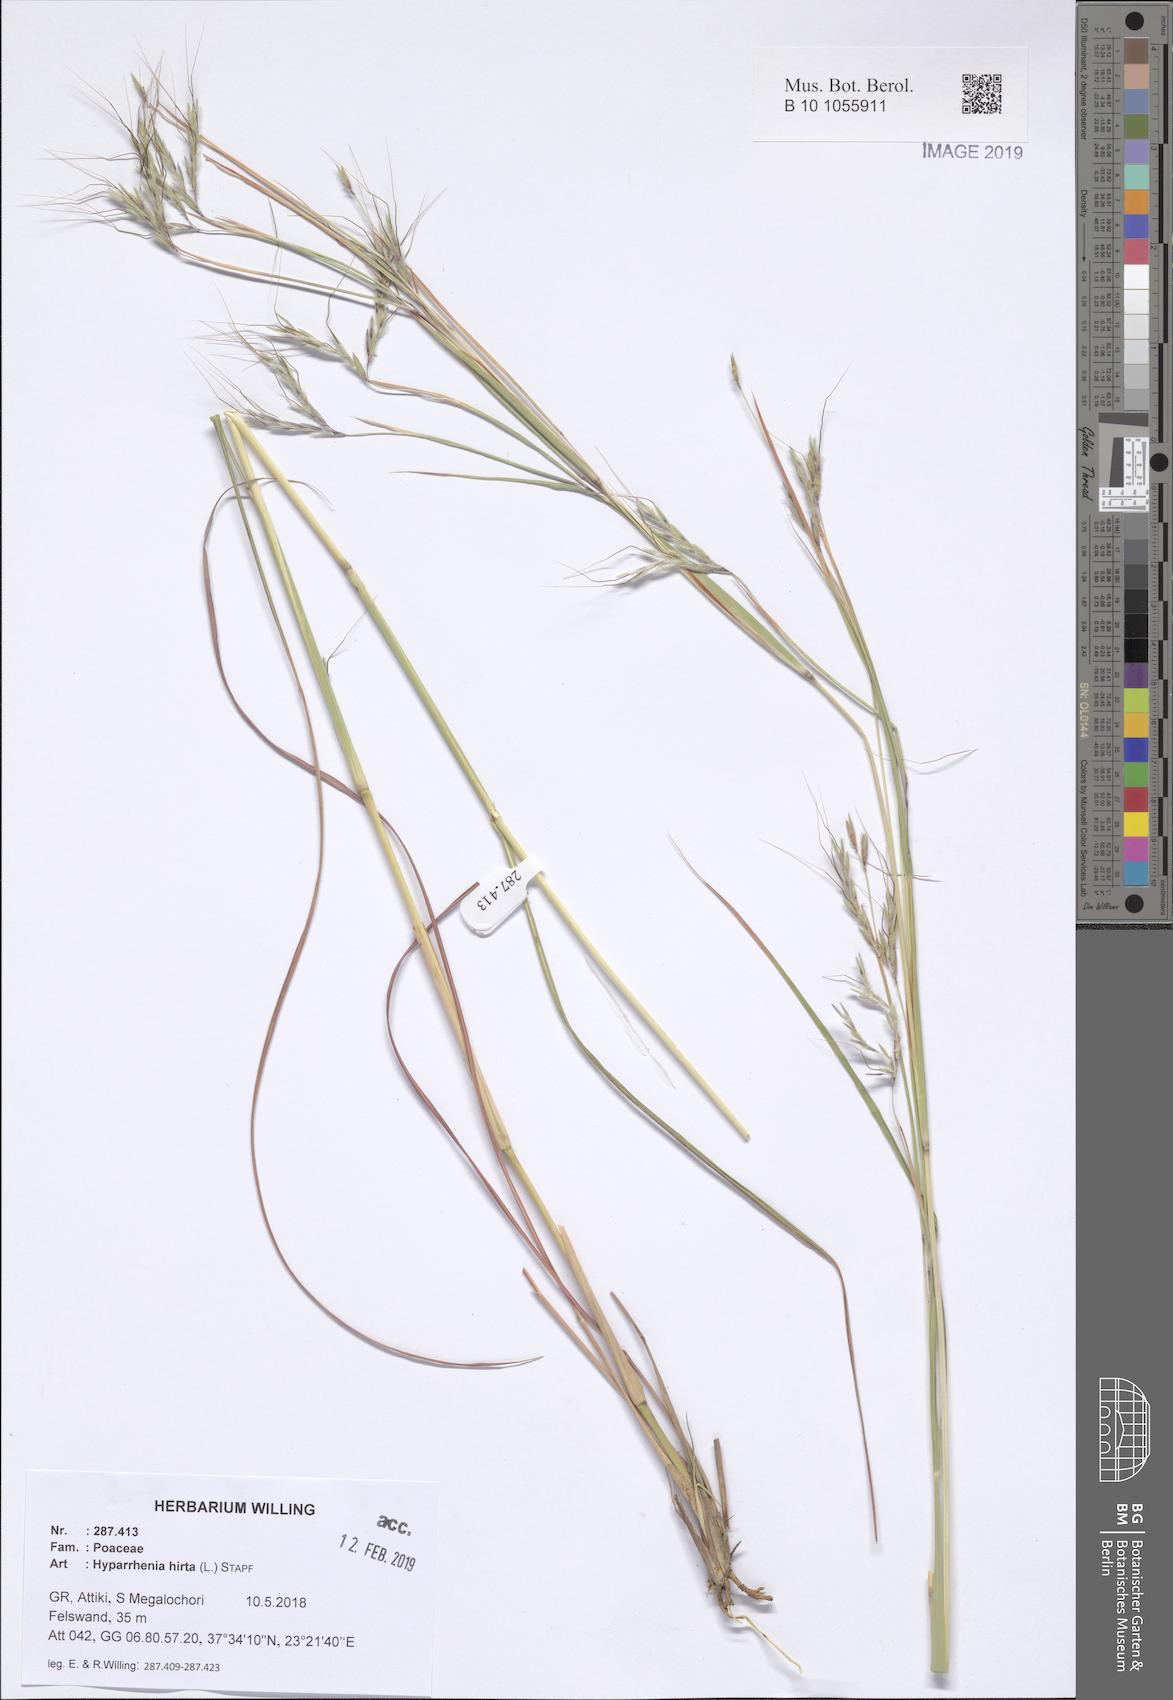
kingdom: Plantae
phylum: Tracheophyta
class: Liliopsida
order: Poales
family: Poaceae
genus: Hyparrhenia
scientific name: Hyparrhenia hirta
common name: Thatching grass
